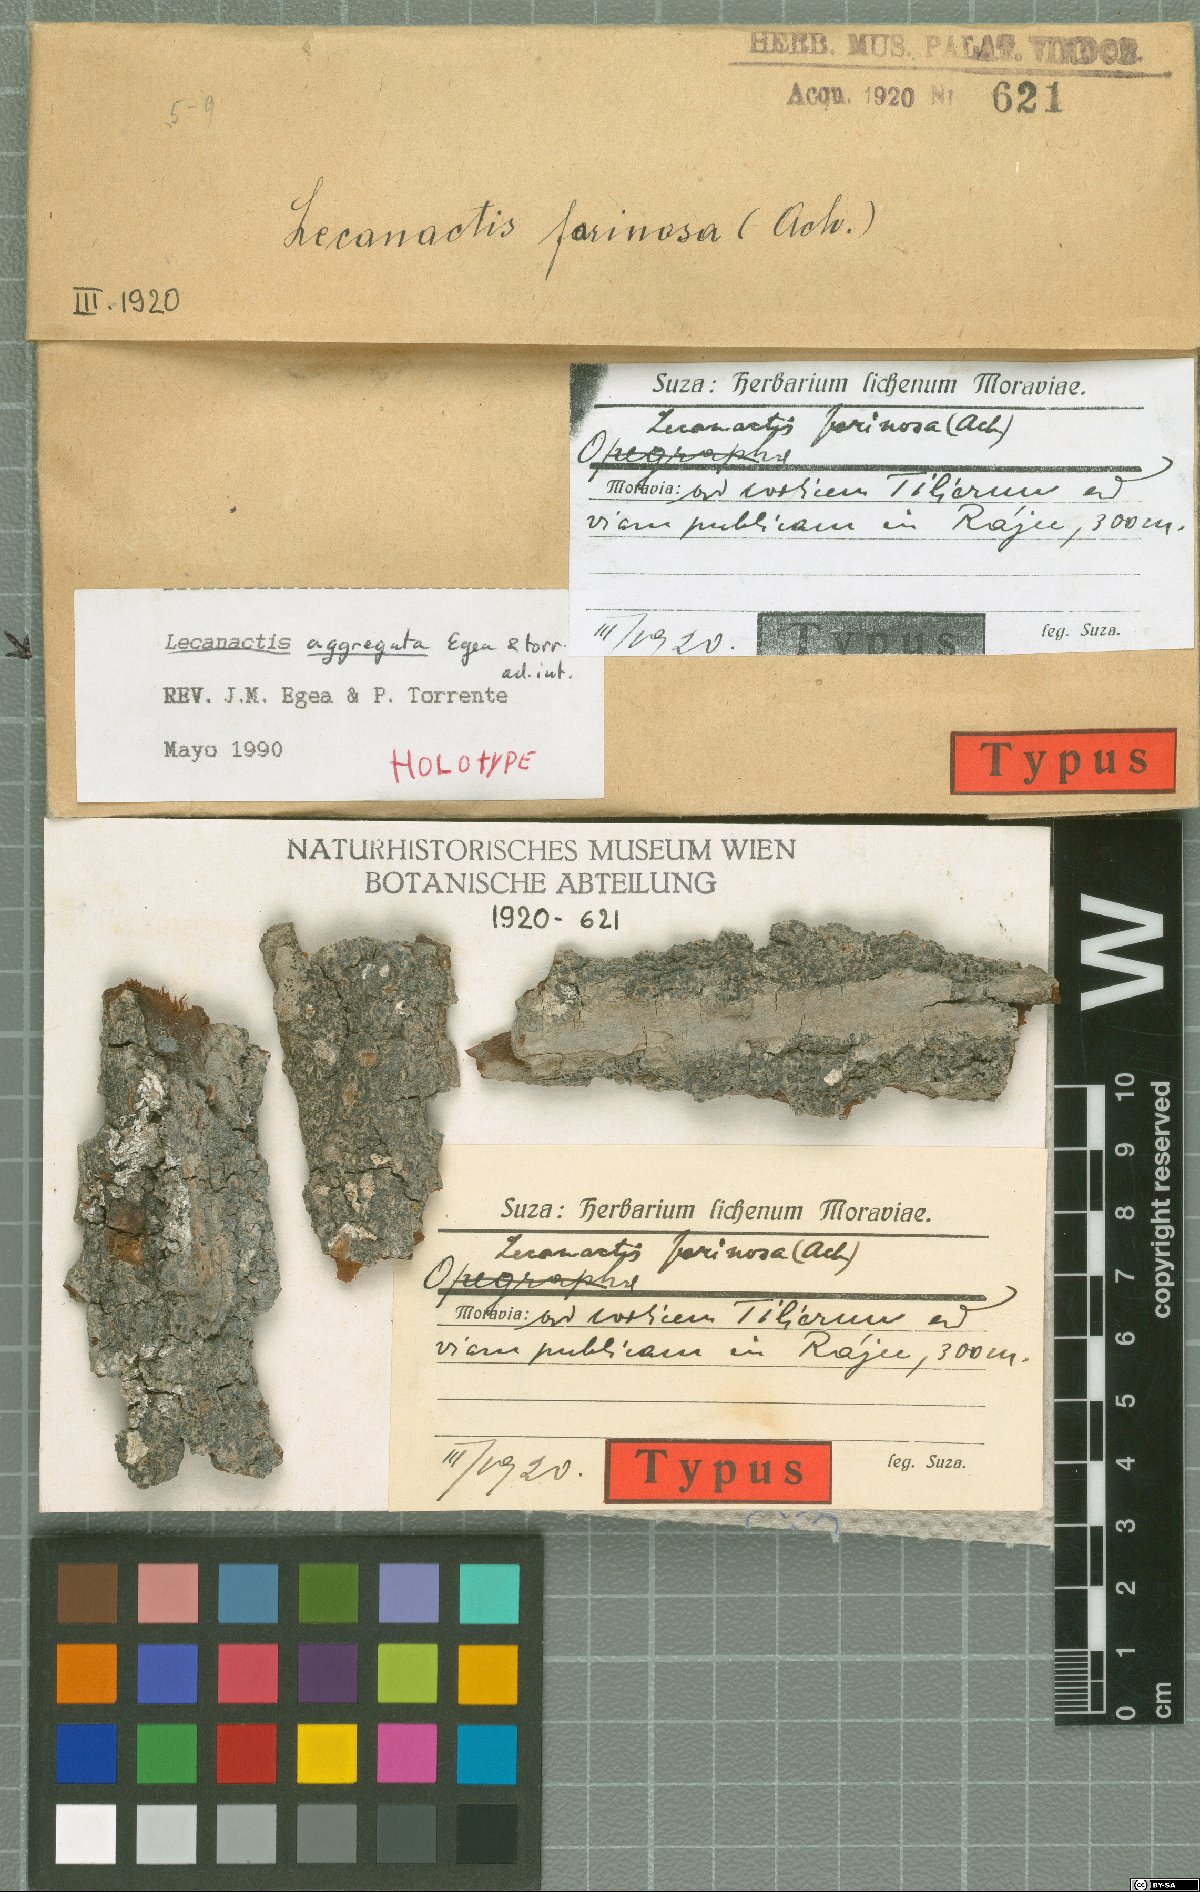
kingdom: Fungi
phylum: Ascomycota
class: Arthoniomycetes
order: Arthoniales
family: Roccellaceae
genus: Lecanactis
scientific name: Lecanactis
